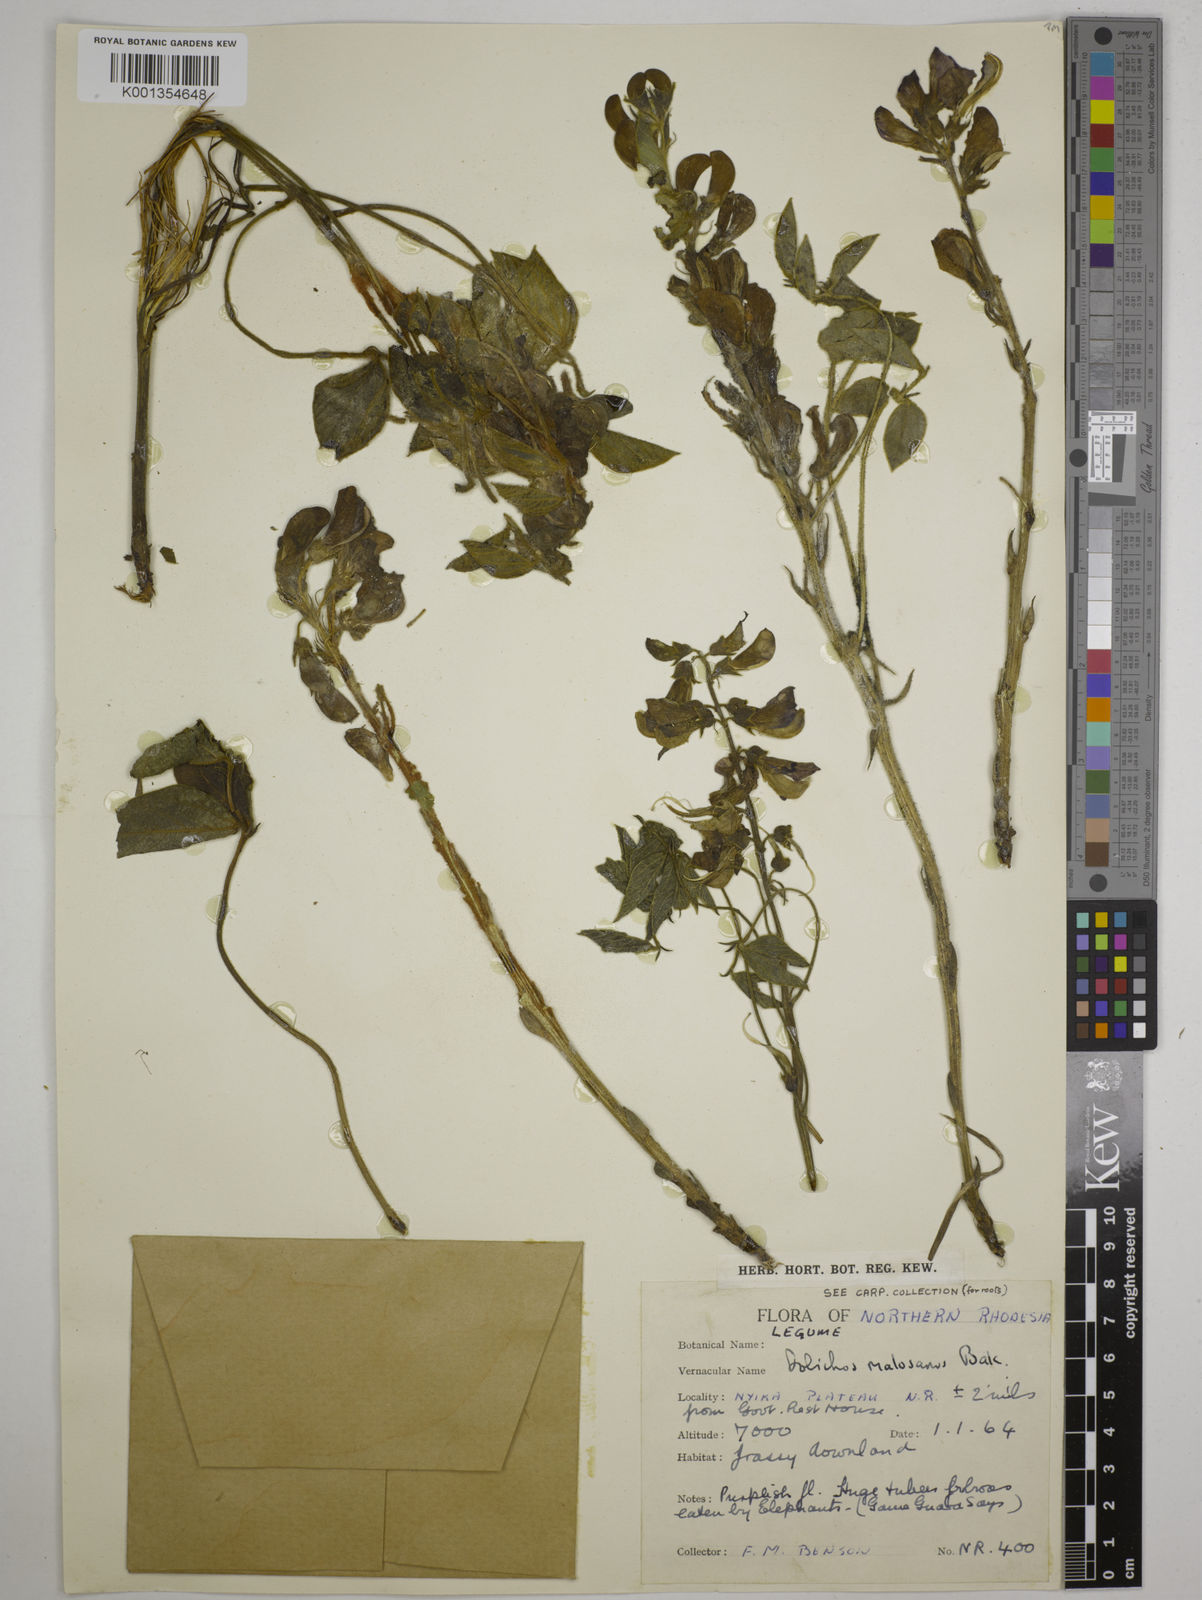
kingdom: Plantae
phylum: Tracheophyta
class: Magnoliopsida
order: Fabales
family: Fabaceae
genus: Dolichos
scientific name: Dolichos kilimandscharicus
